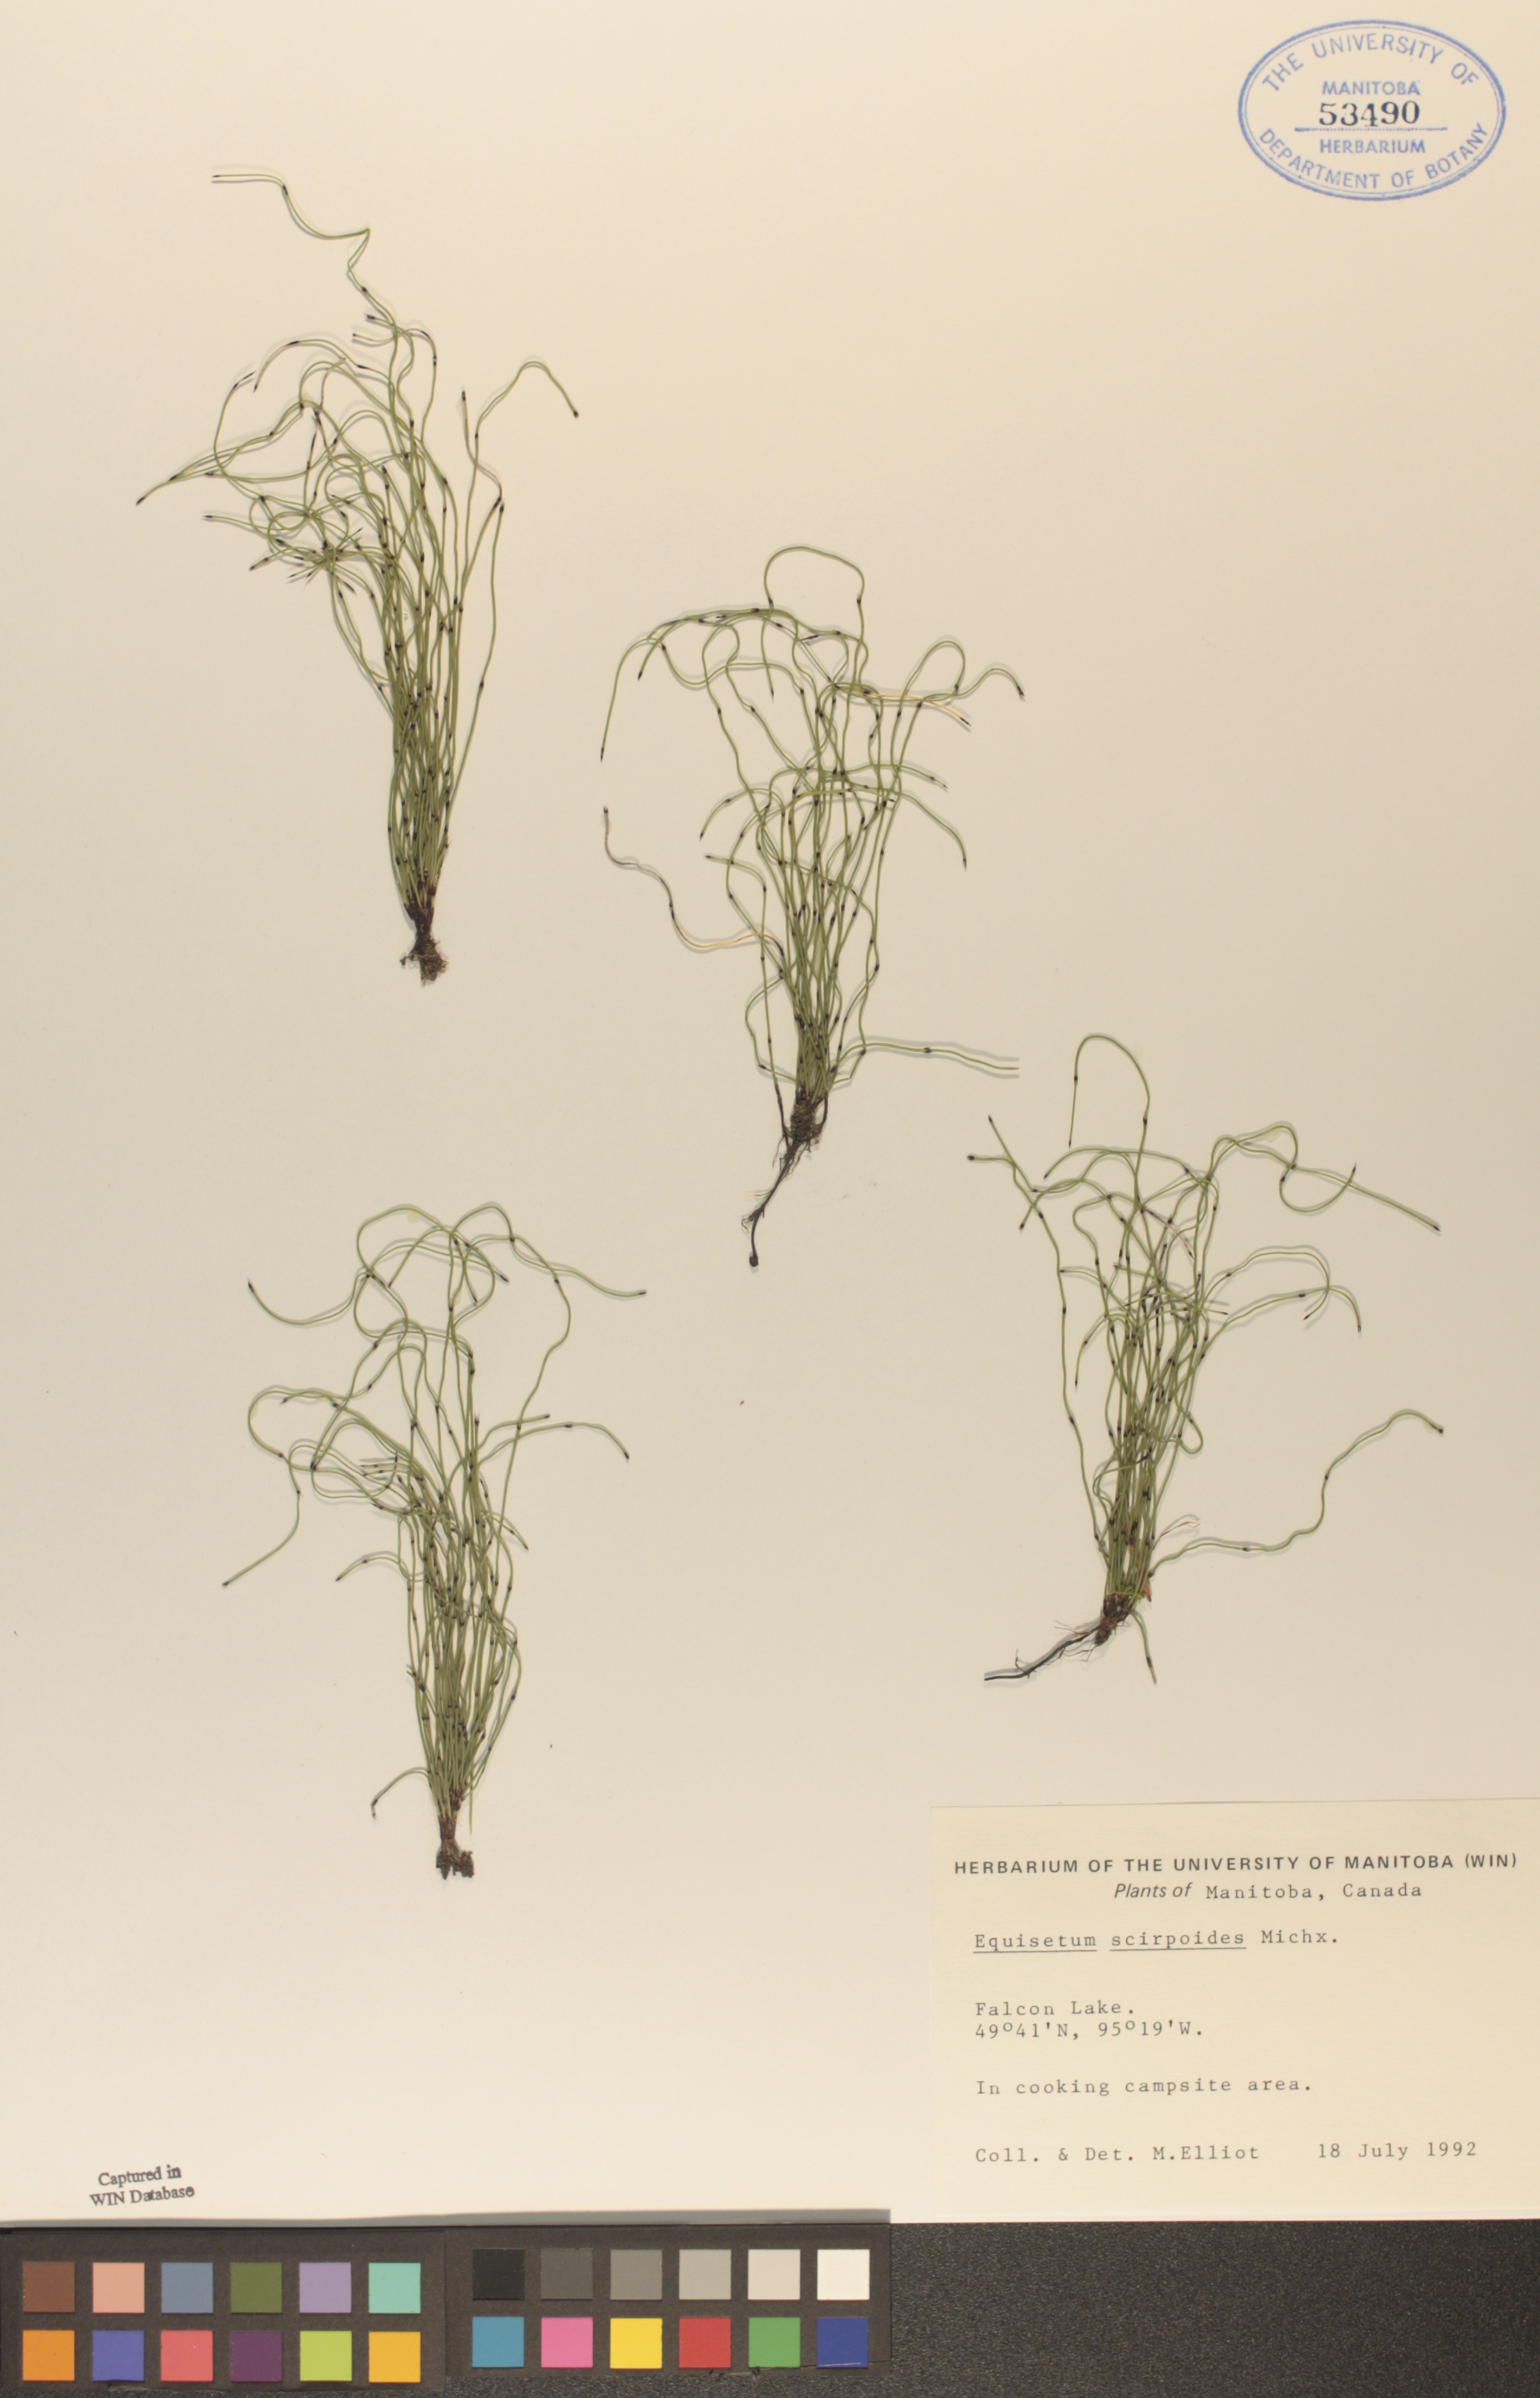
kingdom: Plantae
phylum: Tracheophyta
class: Polypodiopsida
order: Equisetales
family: Equisetaceae
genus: Equisetum
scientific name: Equisetum scirpoides
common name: Delicate horsetail
